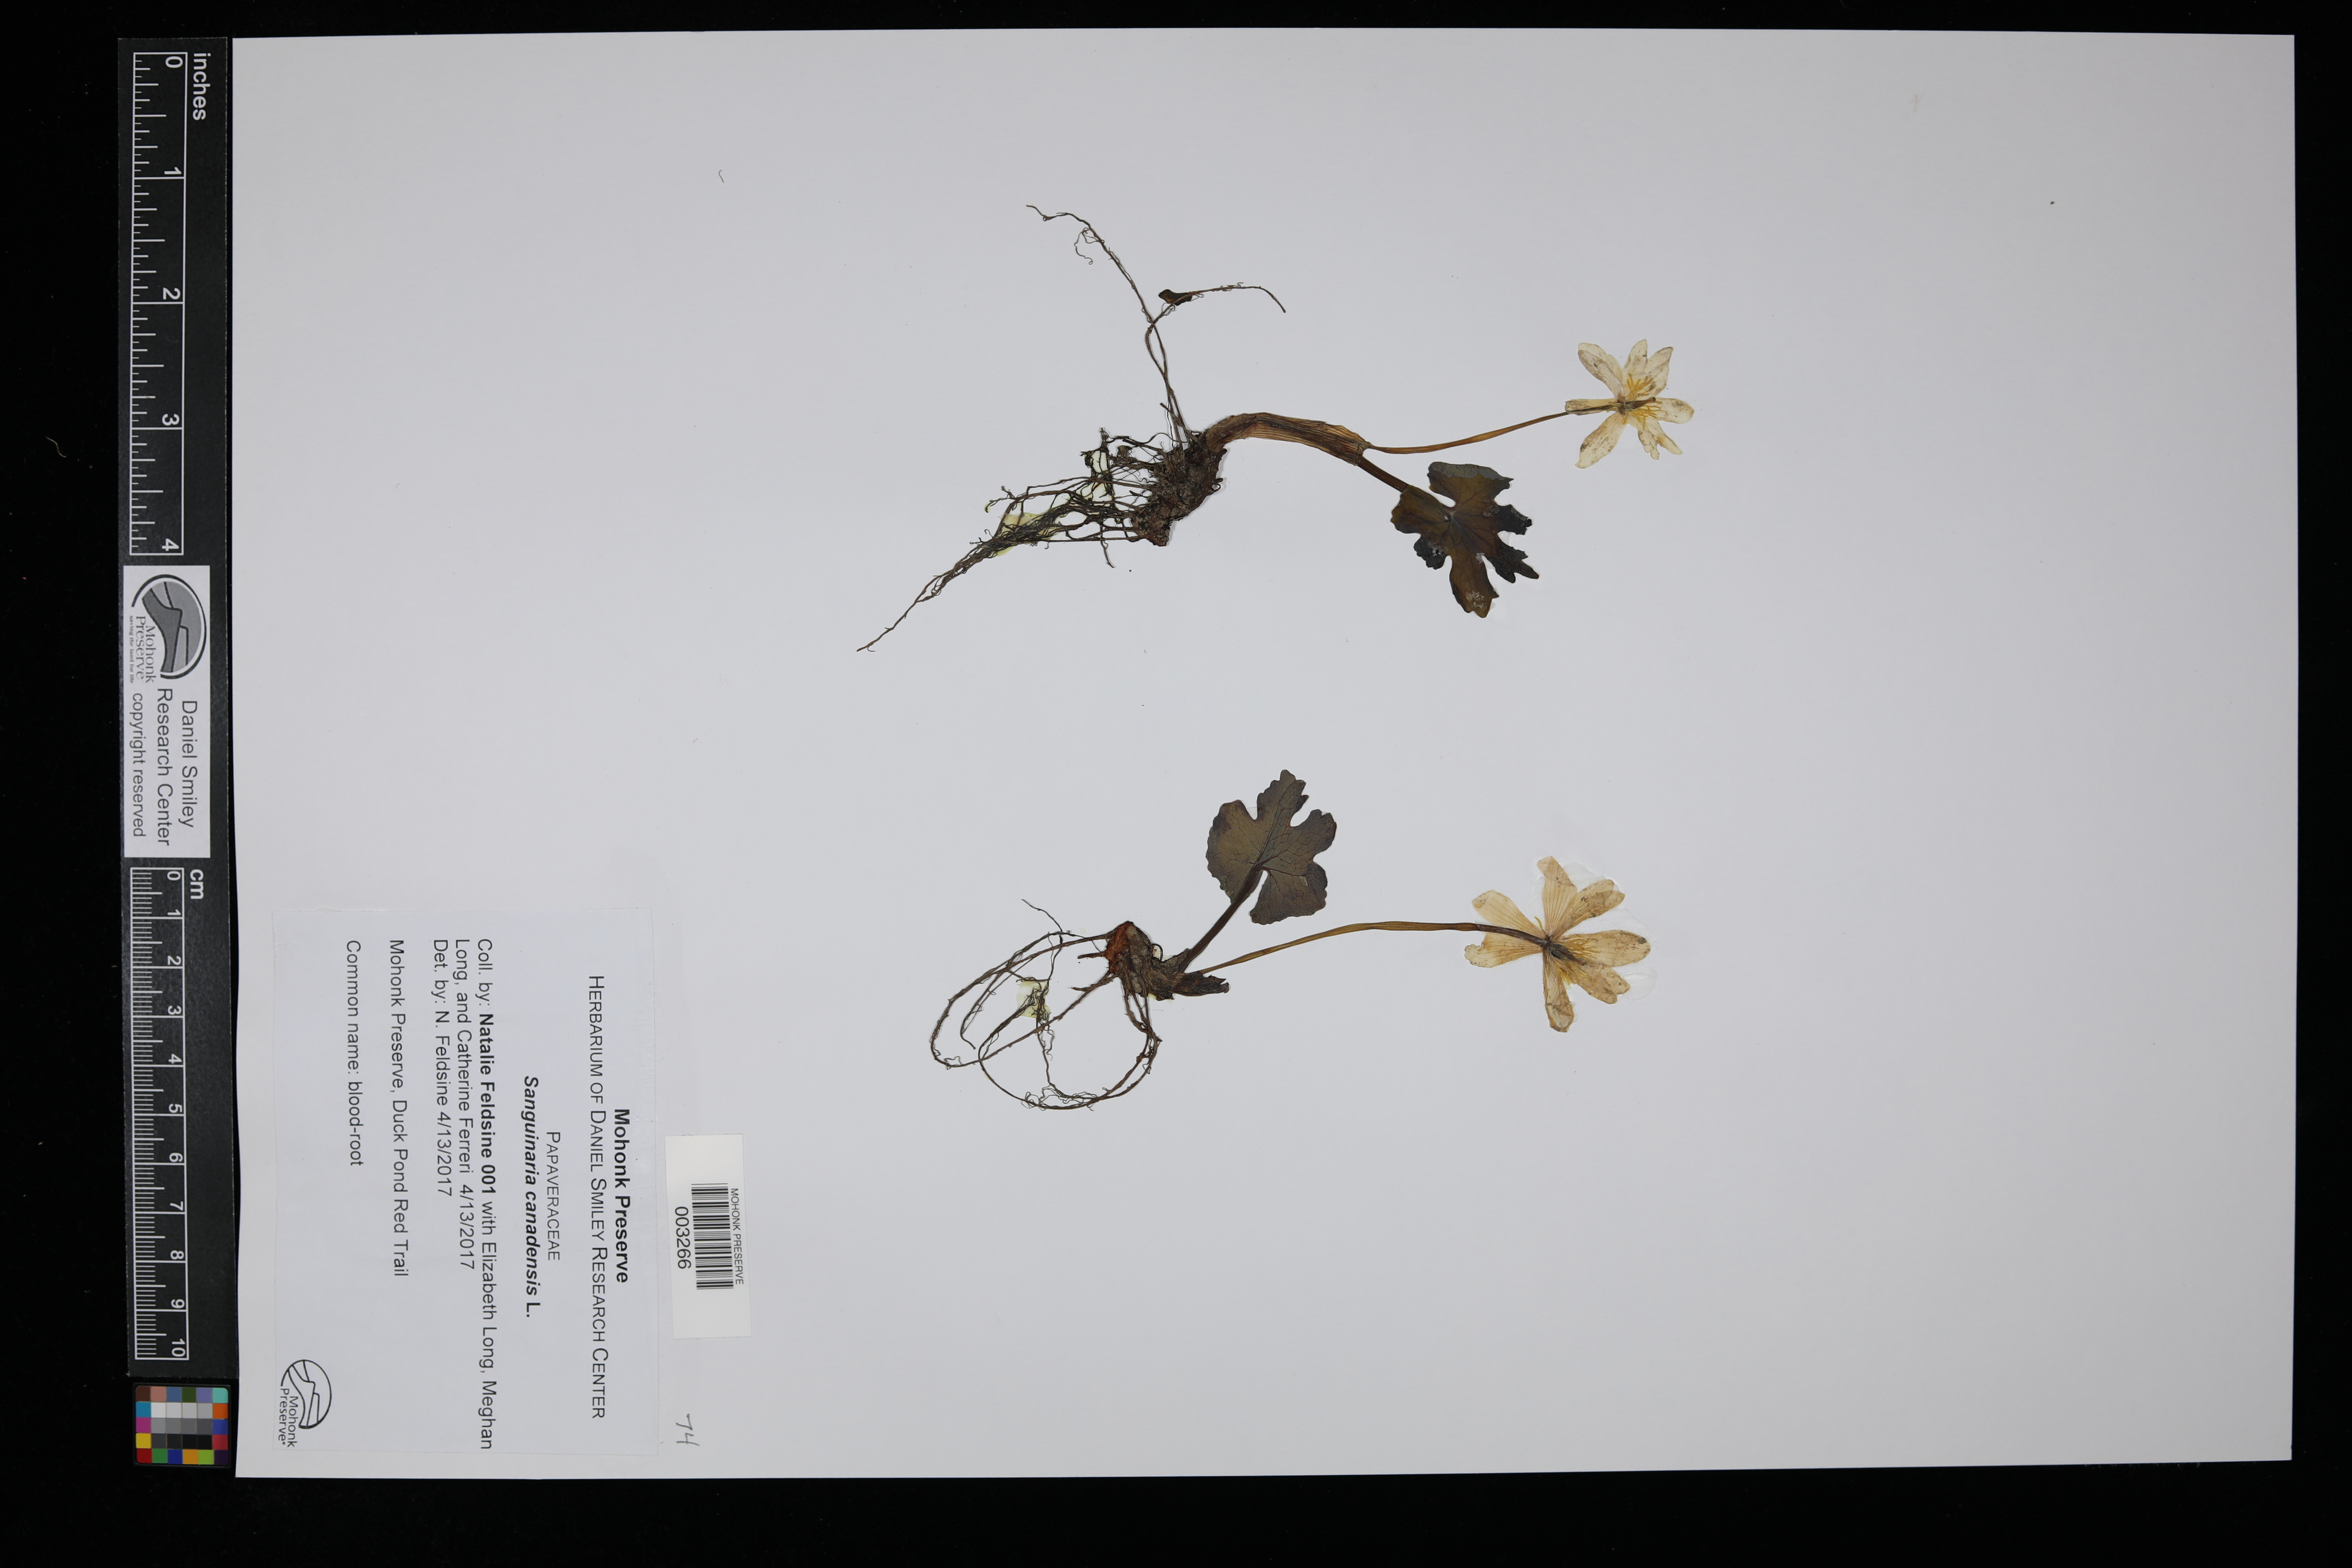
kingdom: Plantae
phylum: Tracheophyta
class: Magnoliopsida
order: Ranunculales
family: Papaveraceae
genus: Sanguinaria
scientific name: Sanguinaria canadensis
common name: Bloodroot
